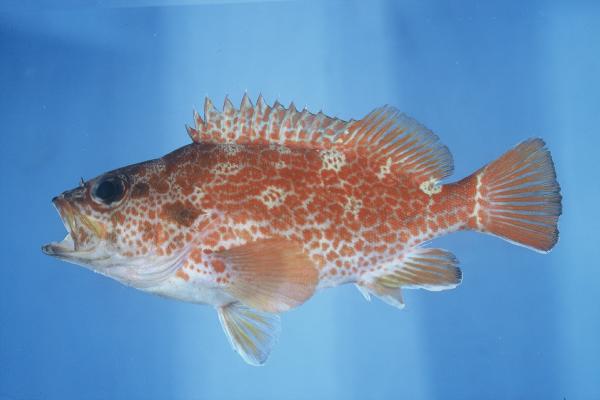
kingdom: Animalia
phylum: Chordata
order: Perciformes
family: Serranidae
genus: Acanthistius
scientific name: Acanthistius joanae
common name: Scalyjaw koester
